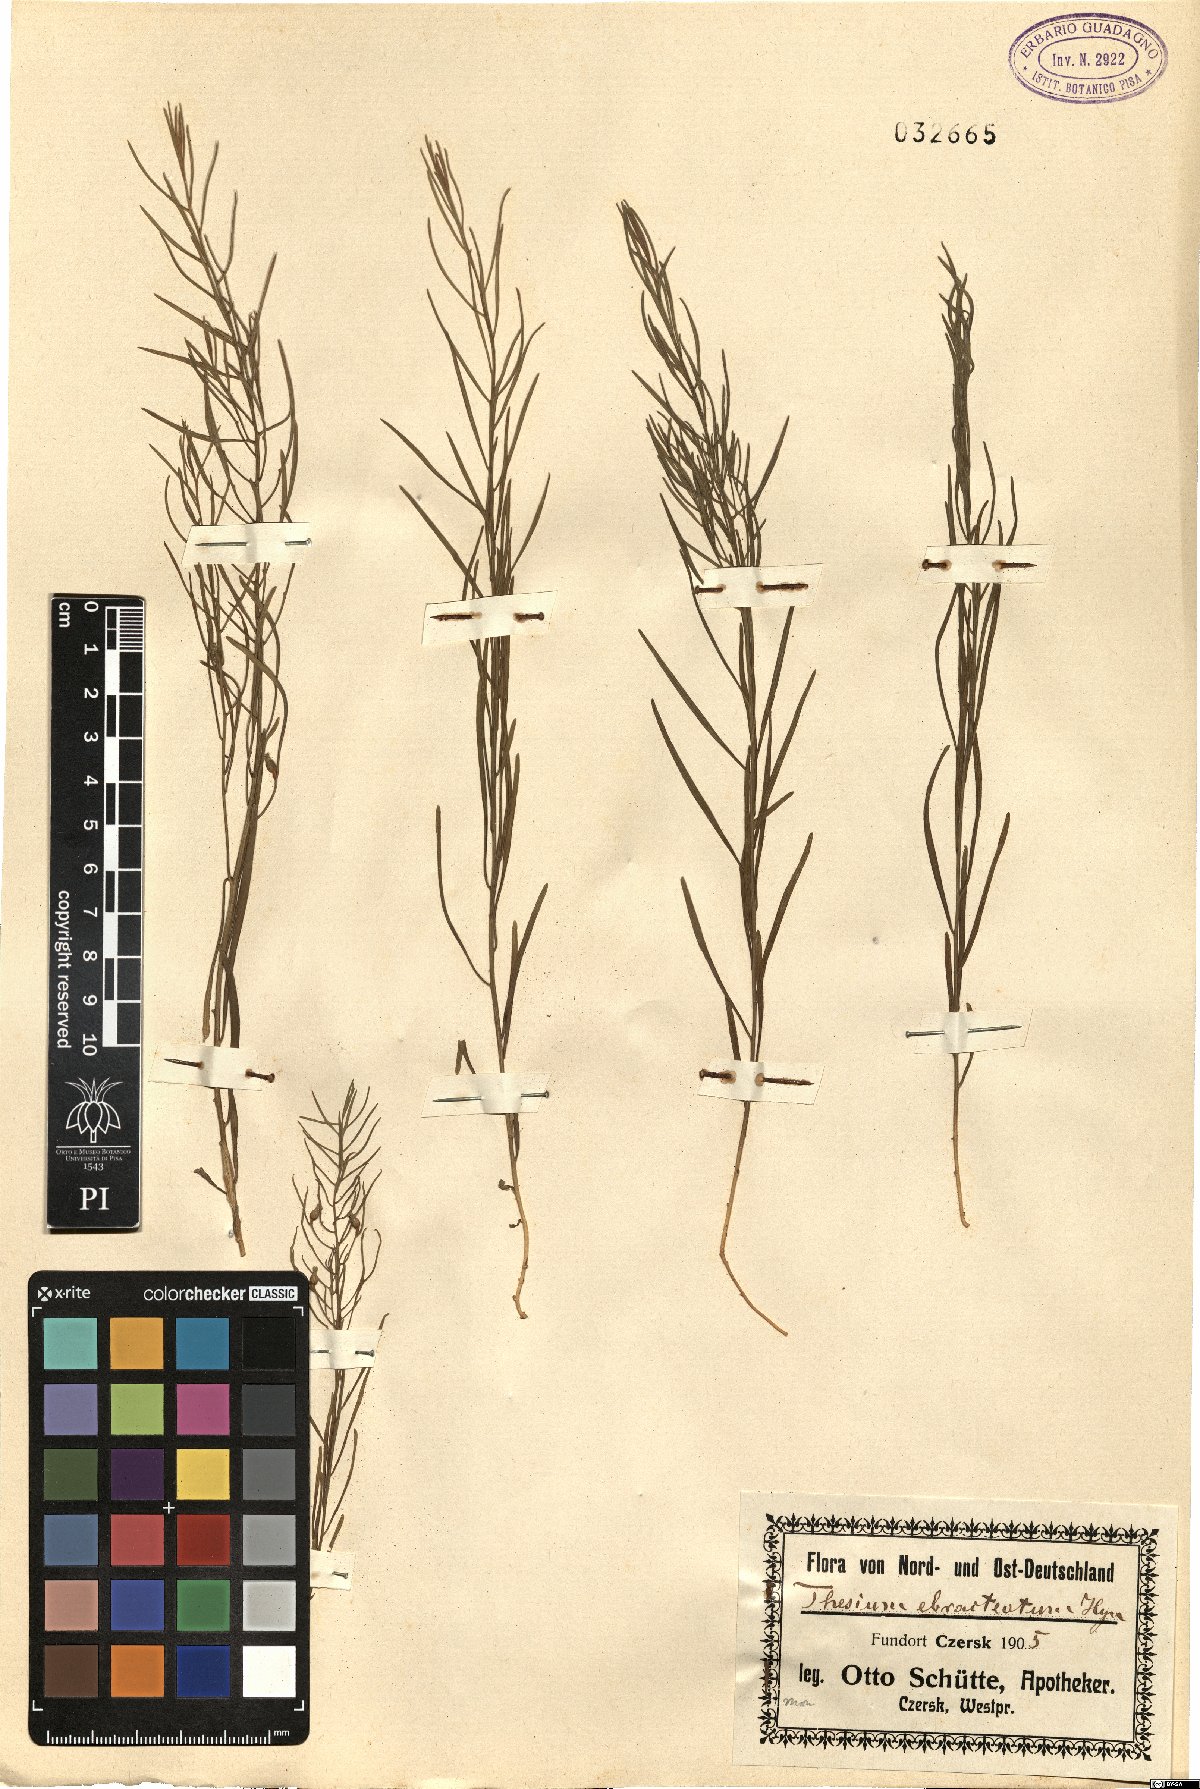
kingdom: Plantae
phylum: Tracheophyta
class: Magnoliopsida
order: Santalales
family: Thesiaceae
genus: Thesium
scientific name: Thesium ebracteatum
